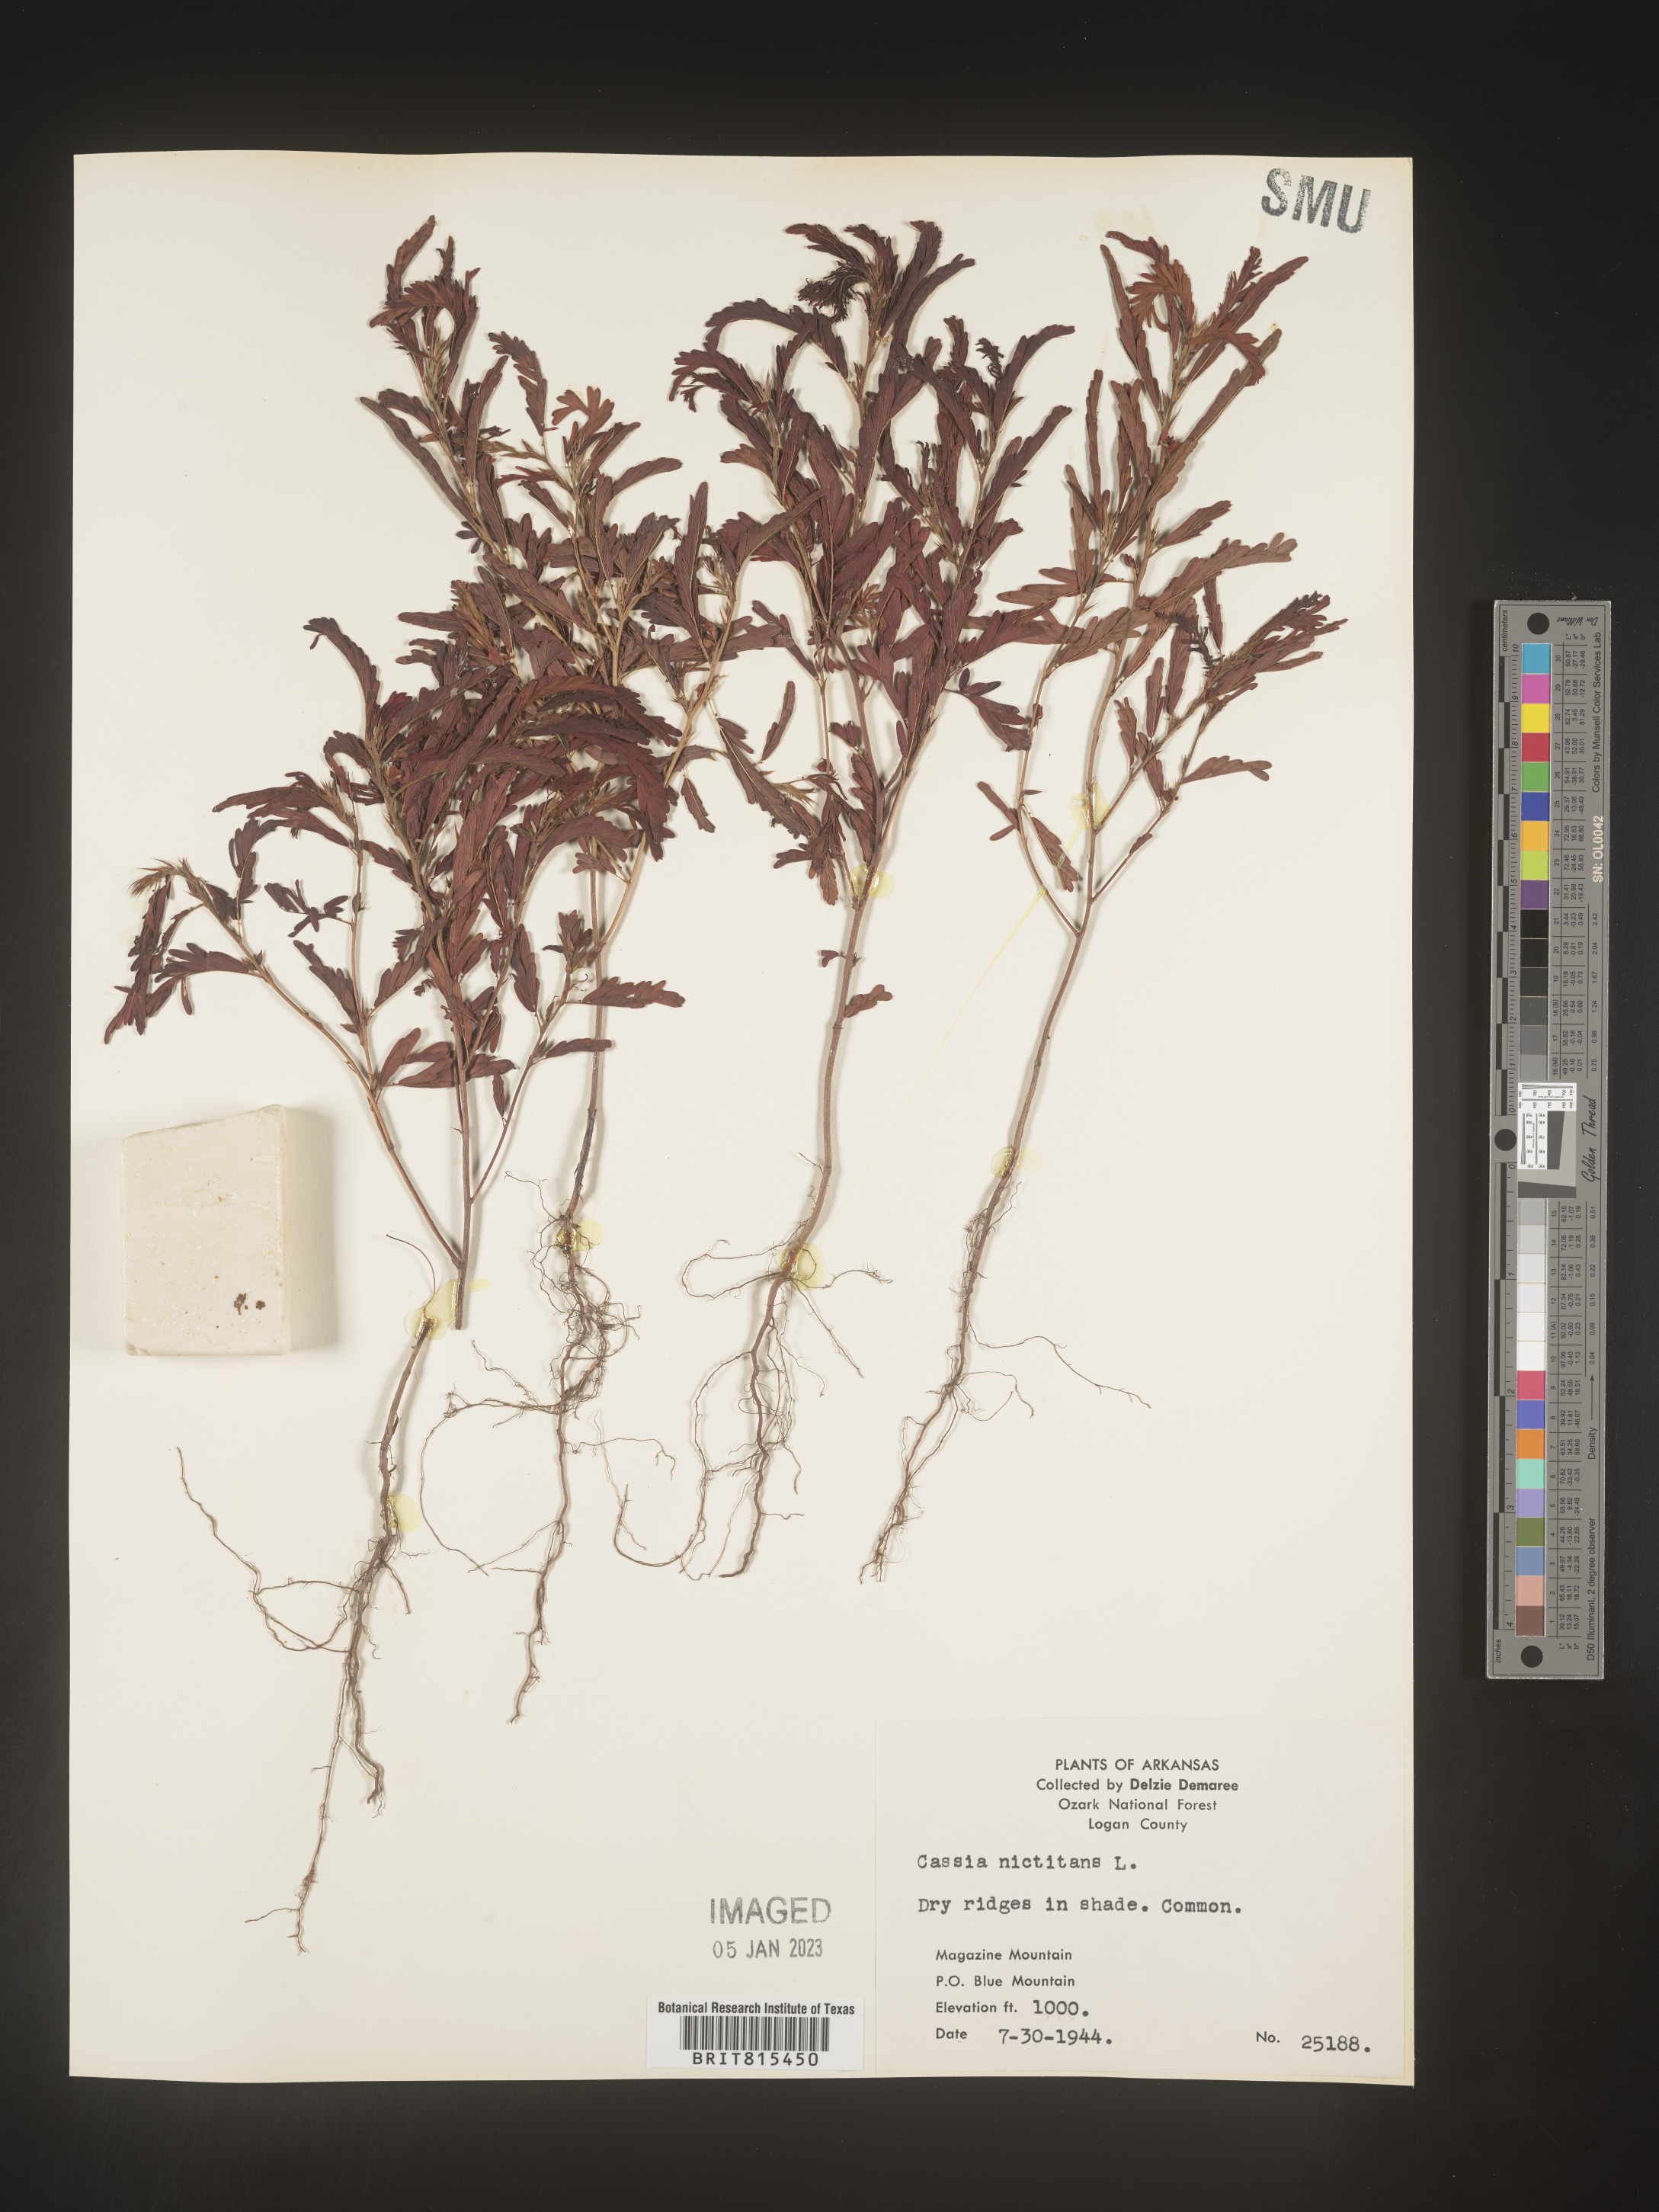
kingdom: Plantae
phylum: Tracheophyta
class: Magnoliopsida
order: Fabales
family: Fabaceae
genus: Chamaecrista
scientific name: Chamaecrista nictitans
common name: Sensitive cassia
